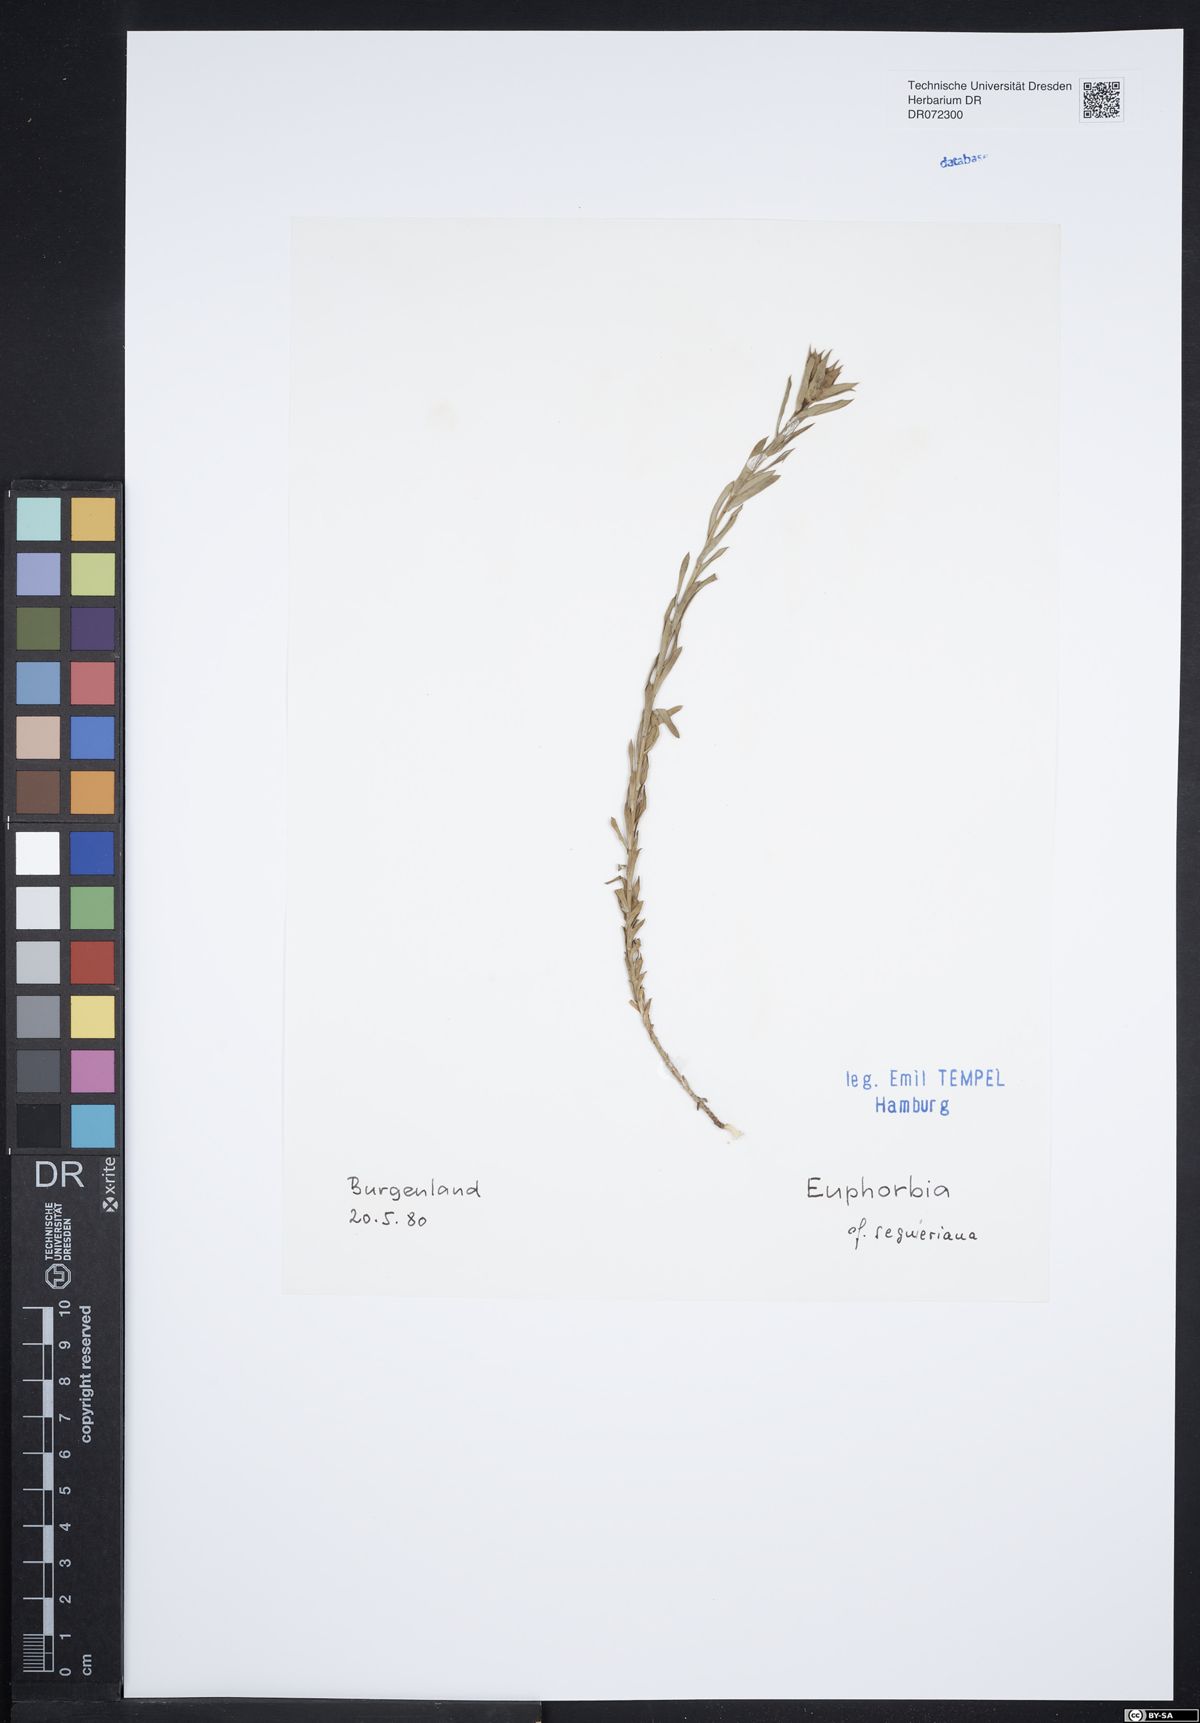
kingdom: Plantae
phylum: Tracheophyta
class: Magnoliopsida
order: Malpighiales
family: Euphorbiaceae
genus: Euphorbia
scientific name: Euphorbia seguieriana
